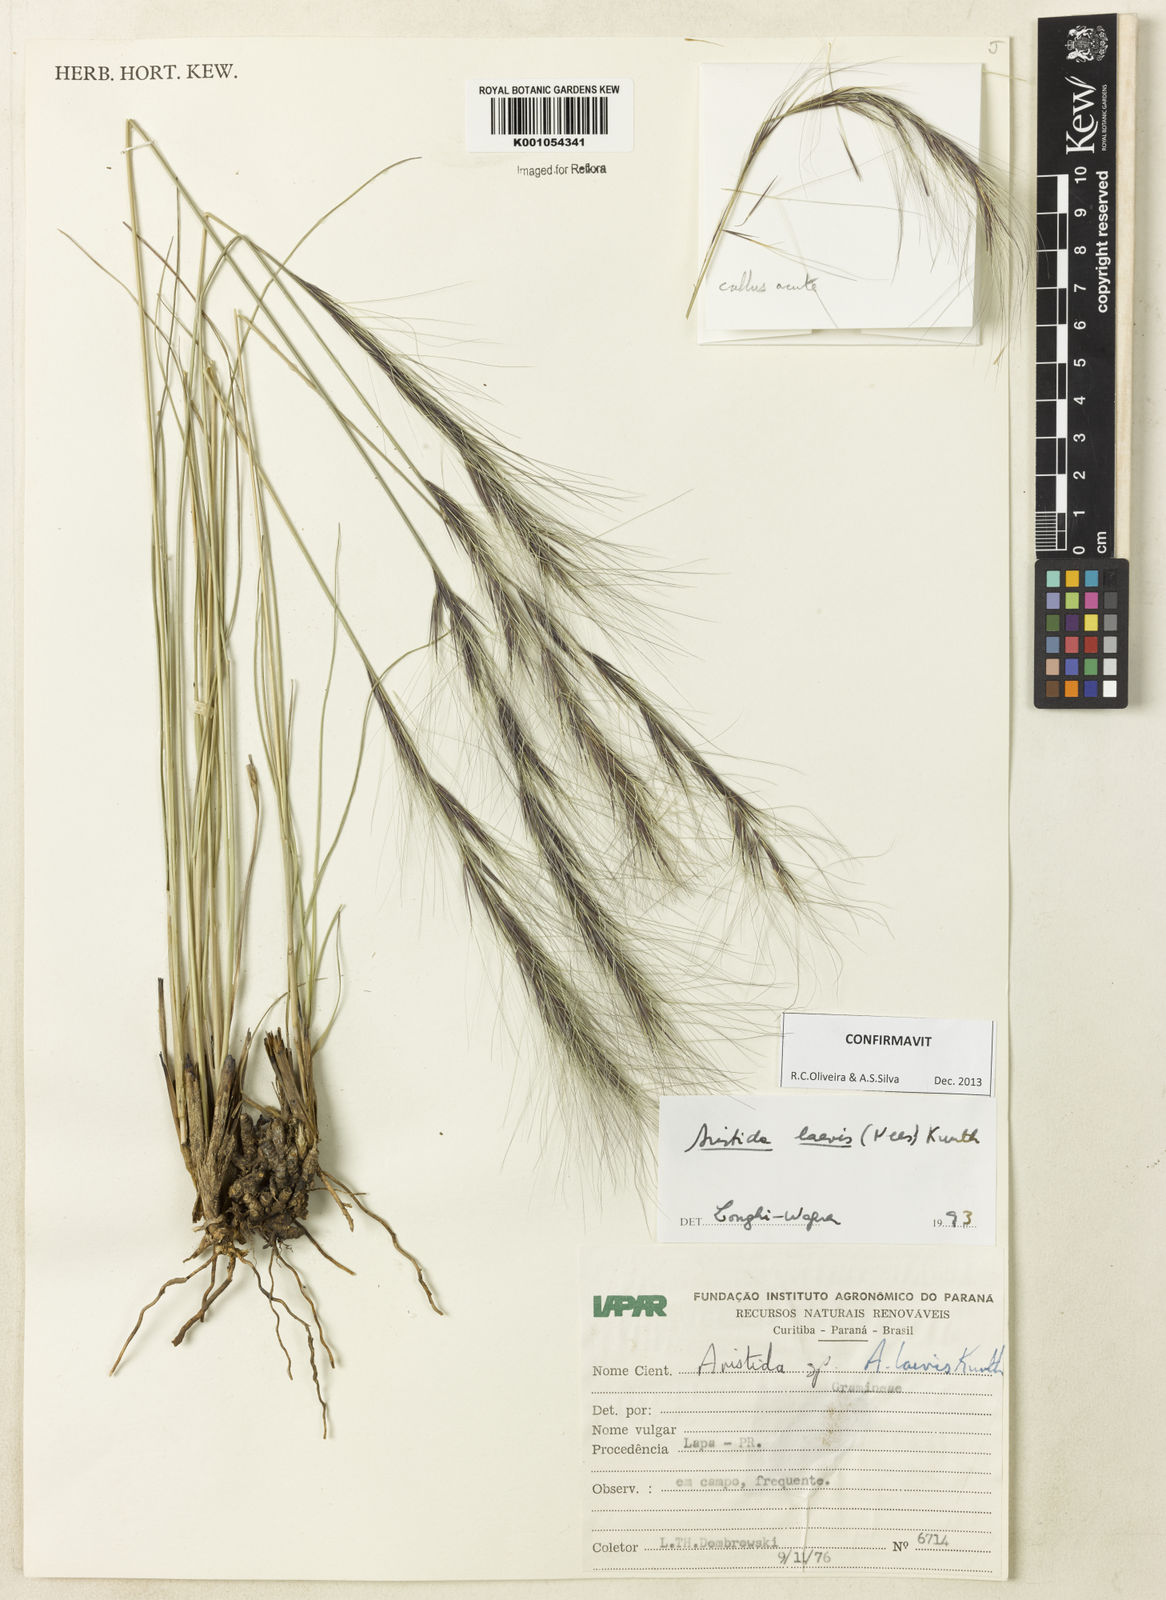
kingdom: Plantae
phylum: Tracheophyta
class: Liliopsida
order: Poales
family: Poaceae
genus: Aristida
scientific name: Aristida laevis
